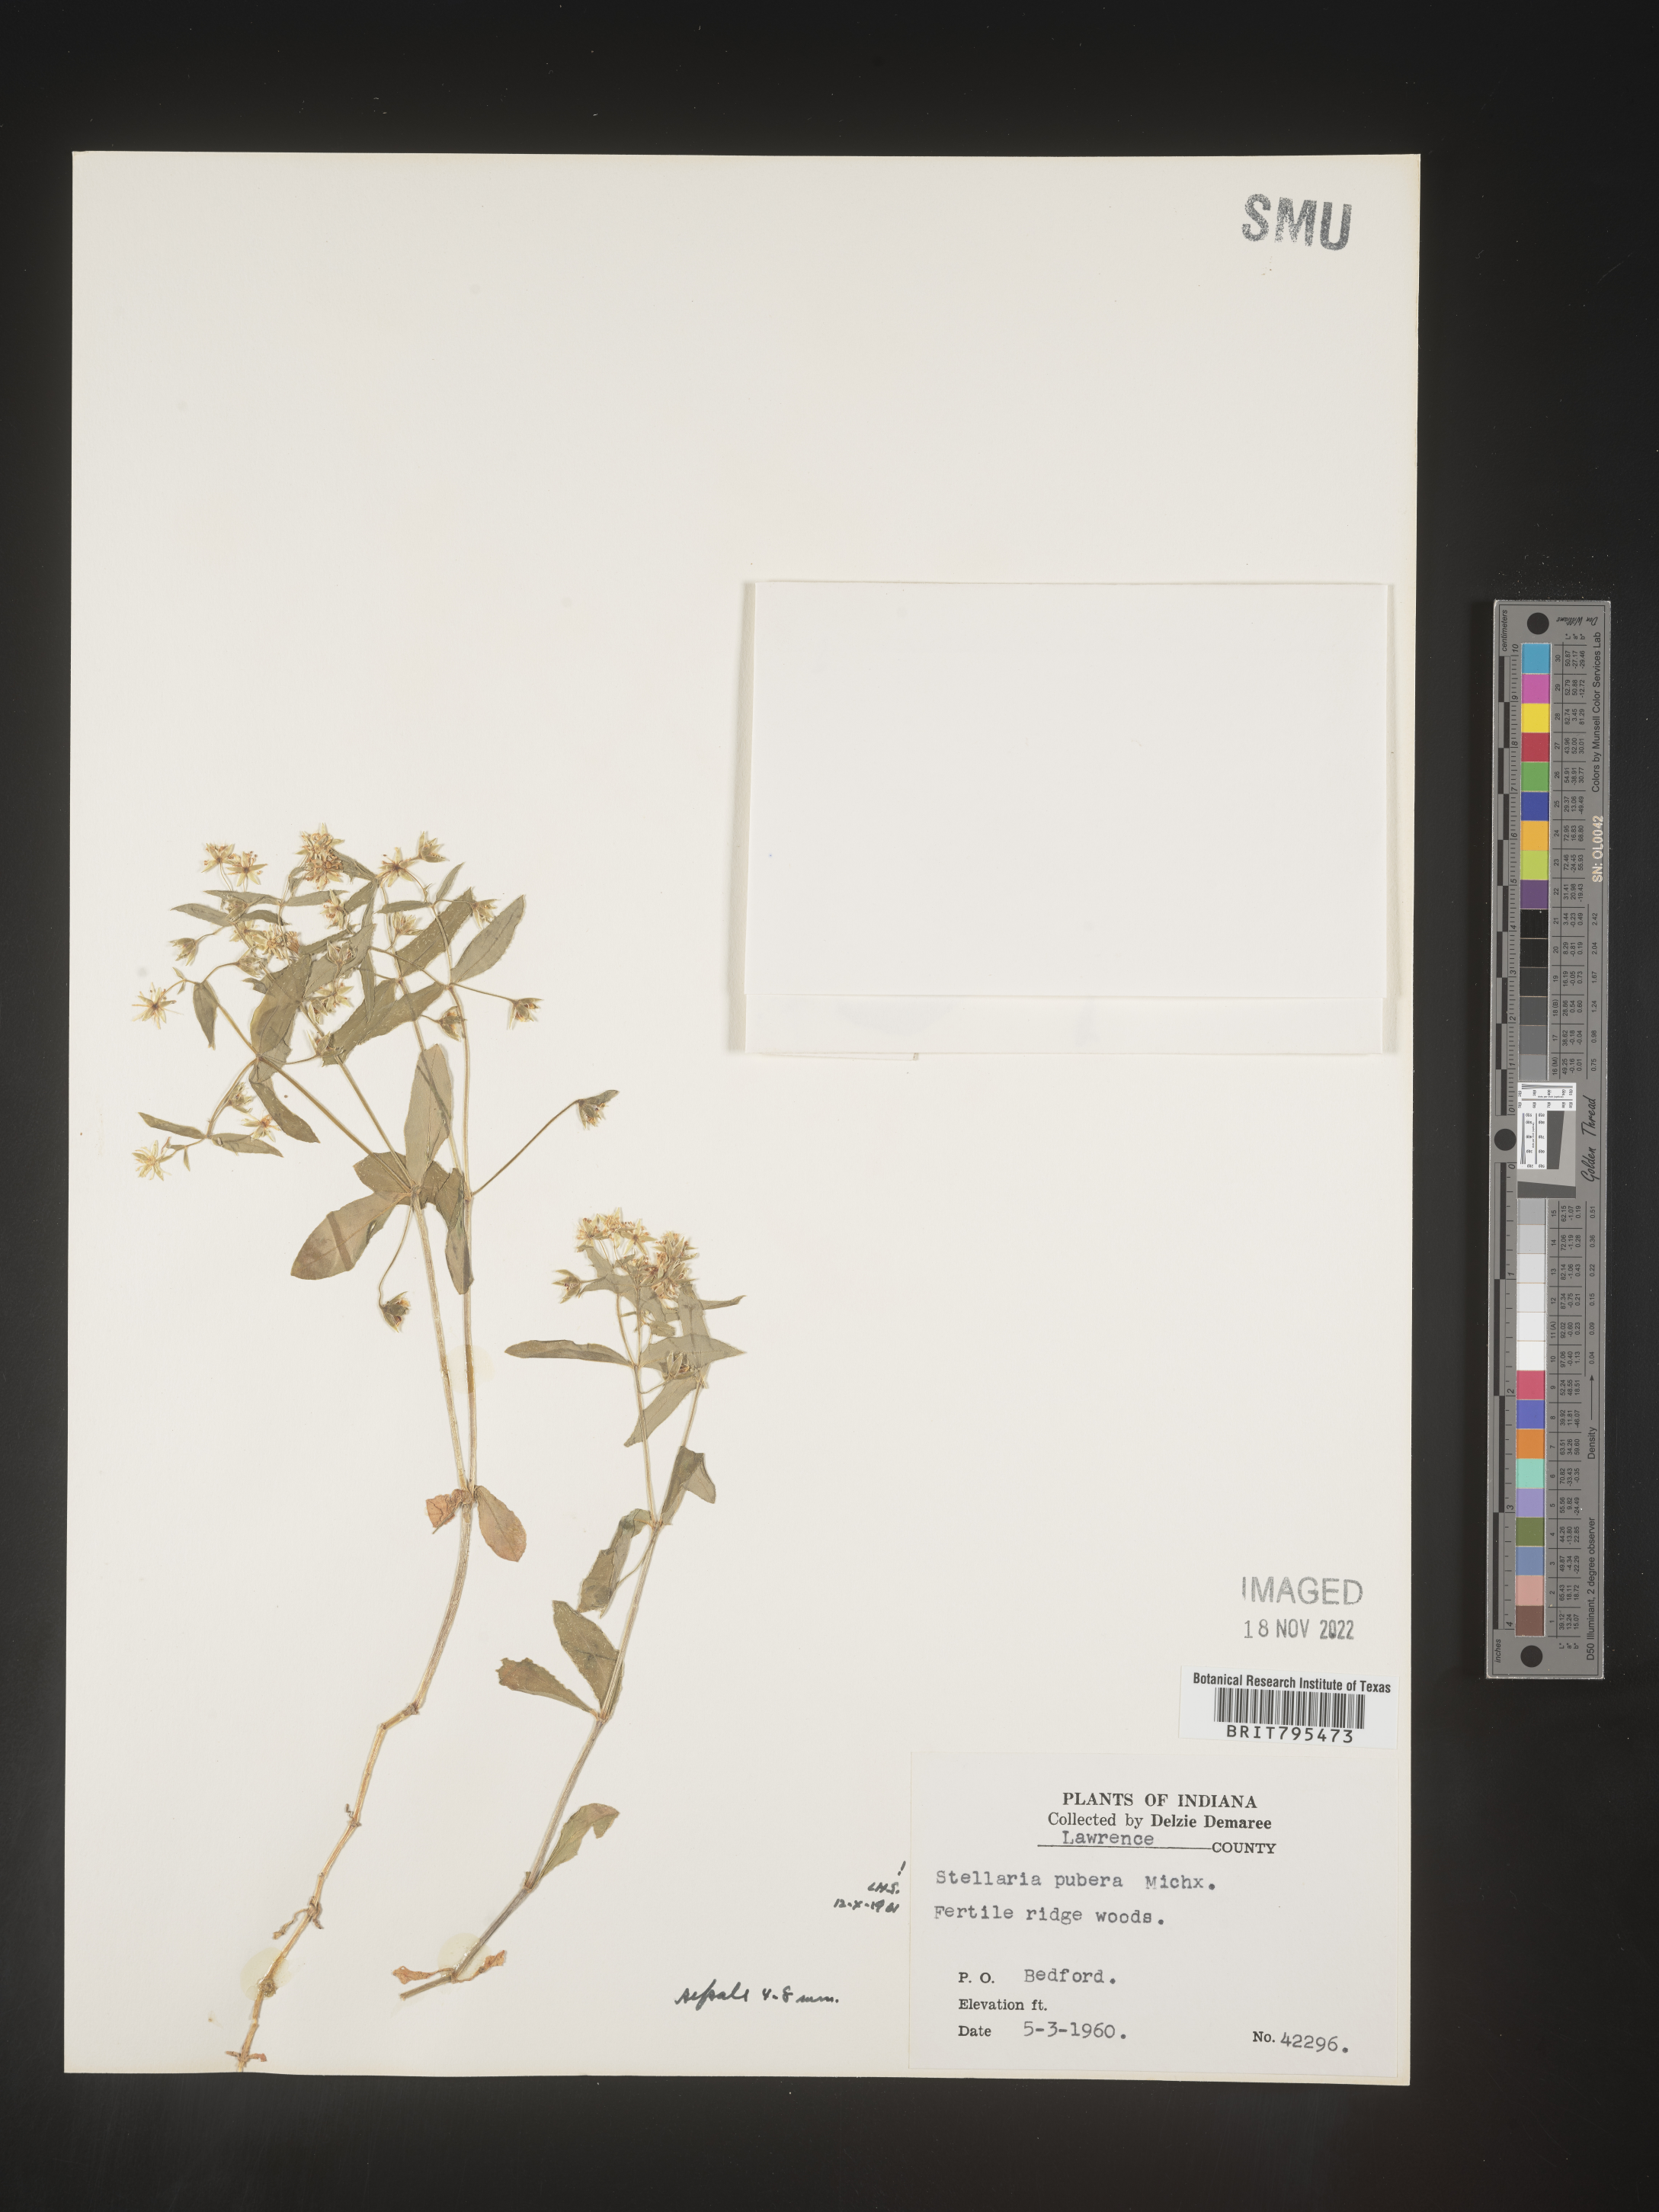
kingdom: Plantae
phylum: Tracheophyta
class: Magnoliopsida
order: Caryophyllales
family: Caryophyllaceae
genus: Stellaria
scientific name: Stellaria pubera
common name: Star chickweed
